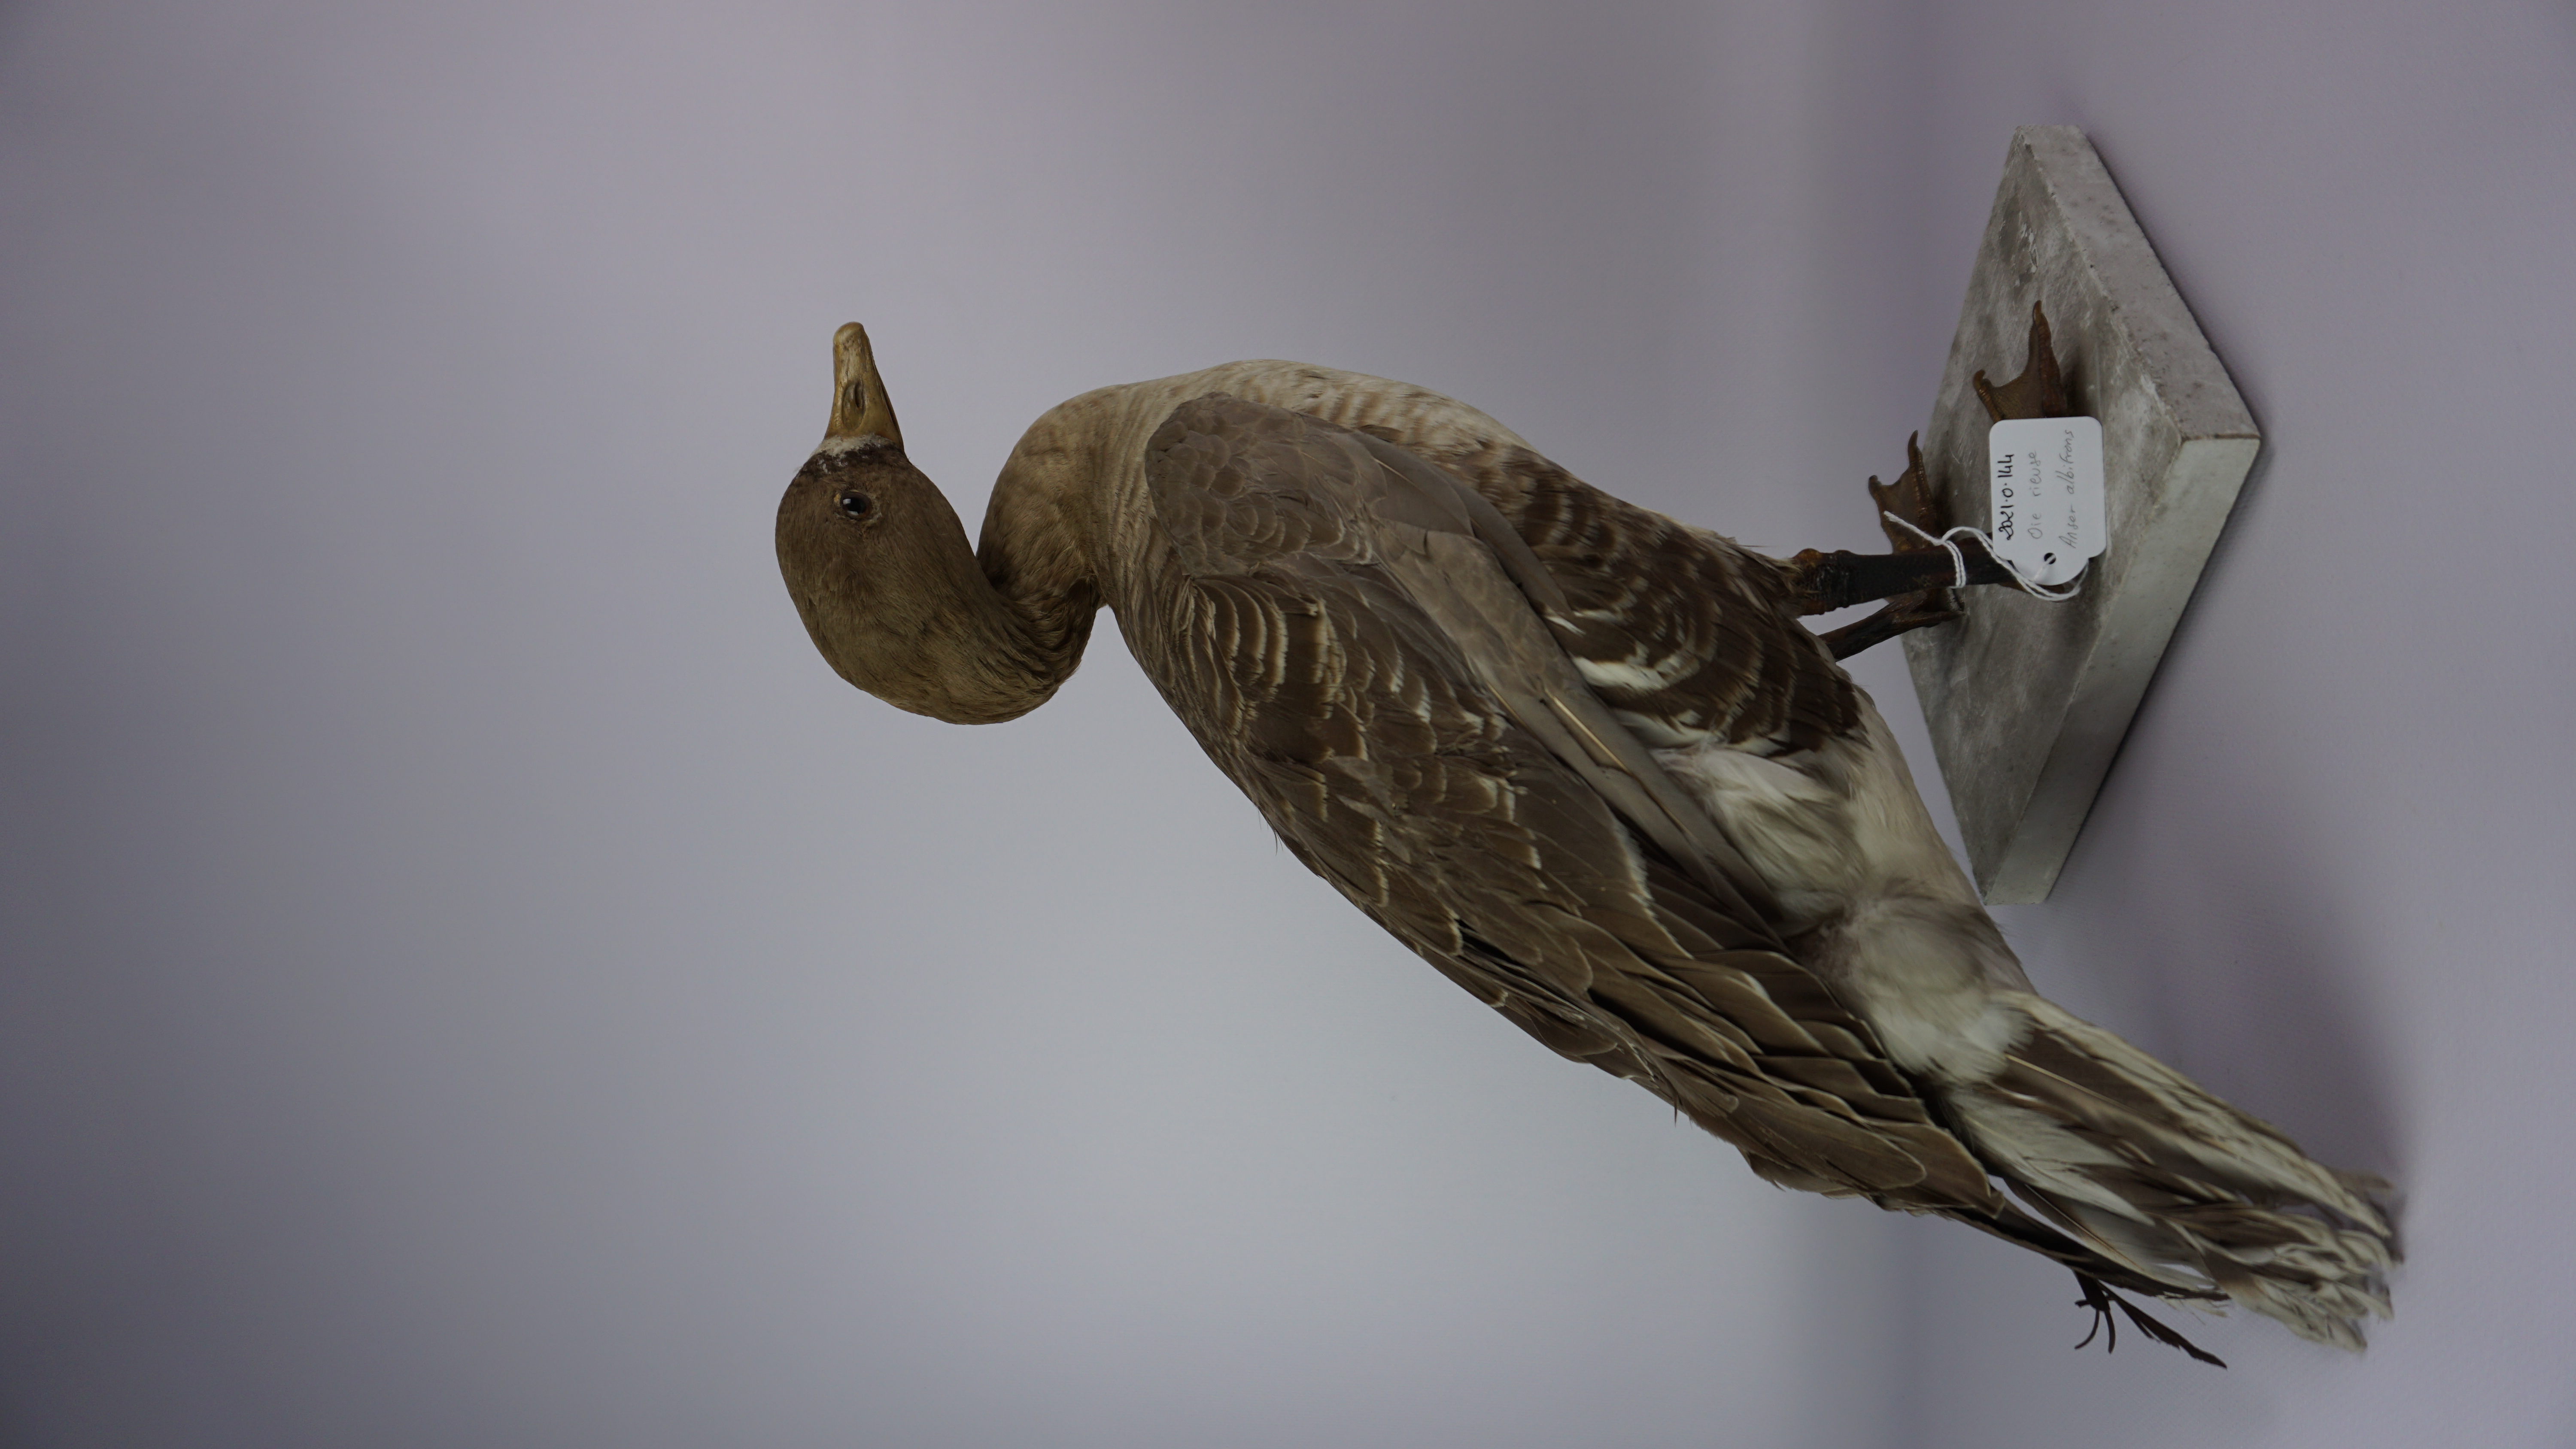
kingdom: Animalia
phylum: Chordata
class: Aves
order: Anseriformes
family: Anatidae
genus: Anser
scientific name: Anser albifrons
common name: Greater white-fronted goose
